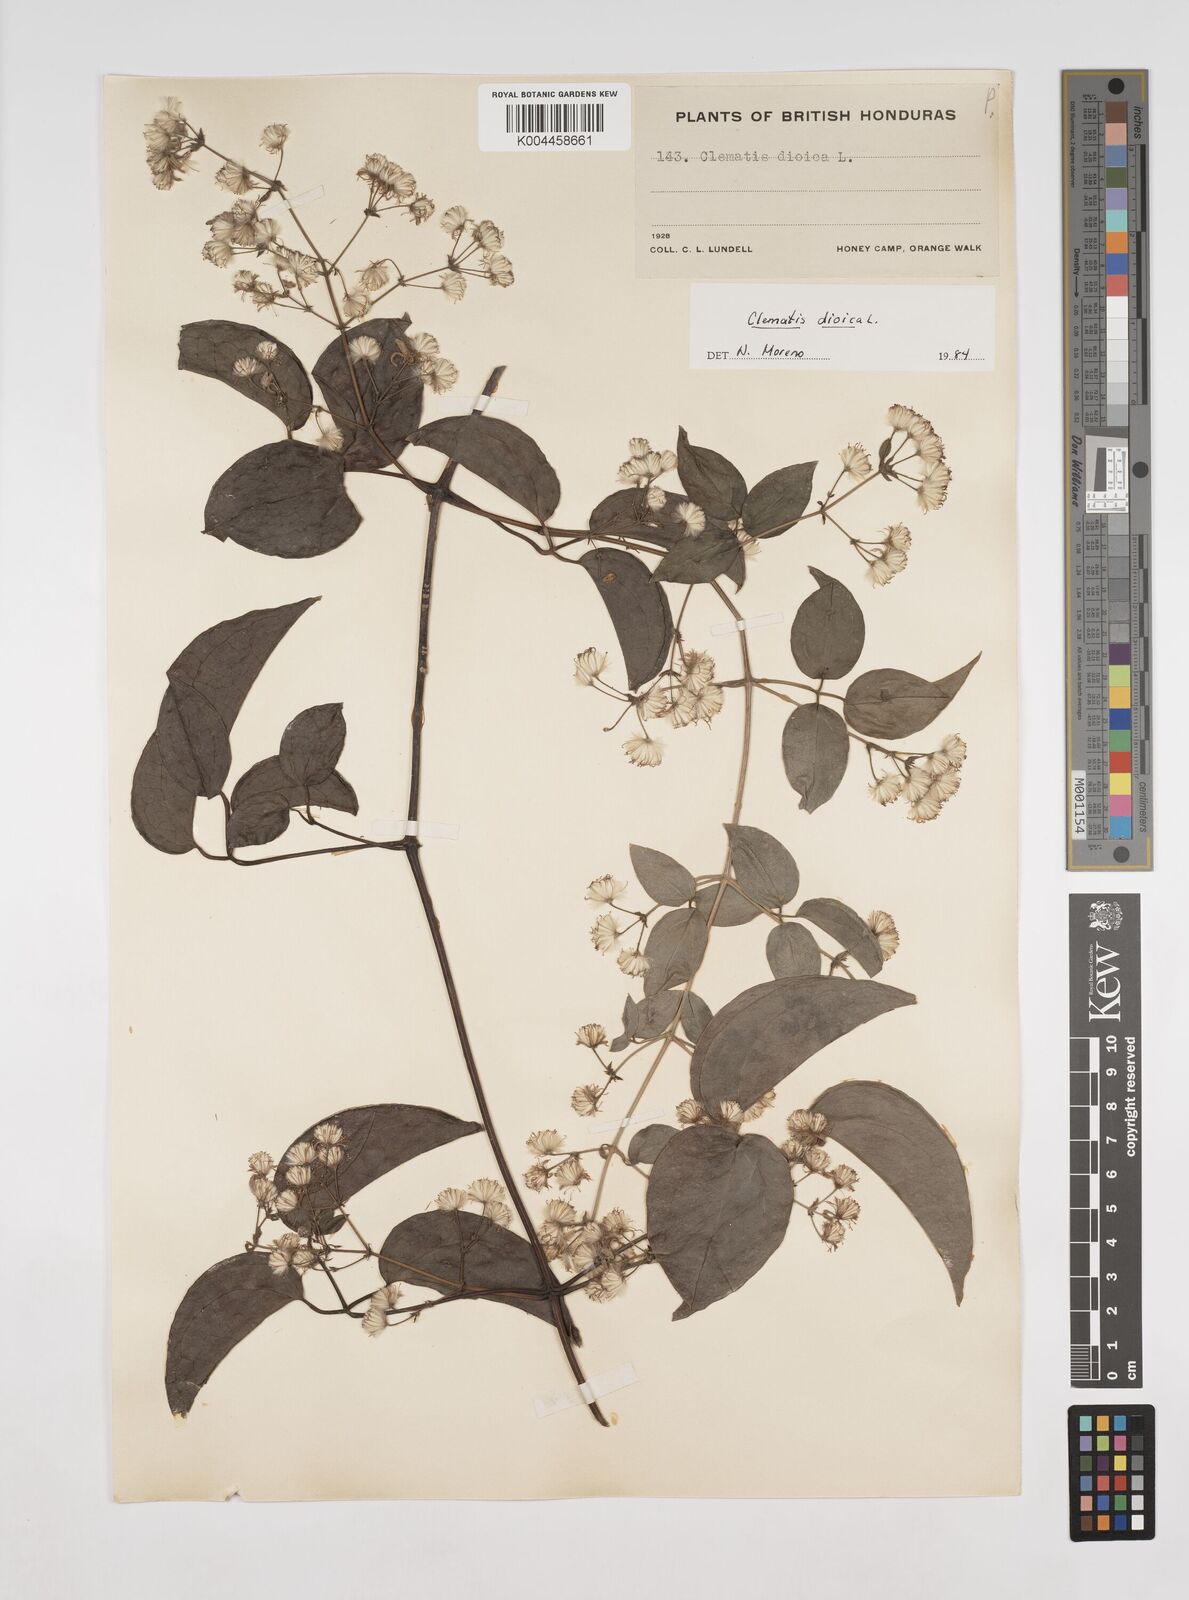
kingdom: Plantae
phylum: Tracheophyta
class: Magnoliopsida
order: Ranunculales
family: Ranunculaceae
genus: Clematis
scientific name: Clematis dioica
